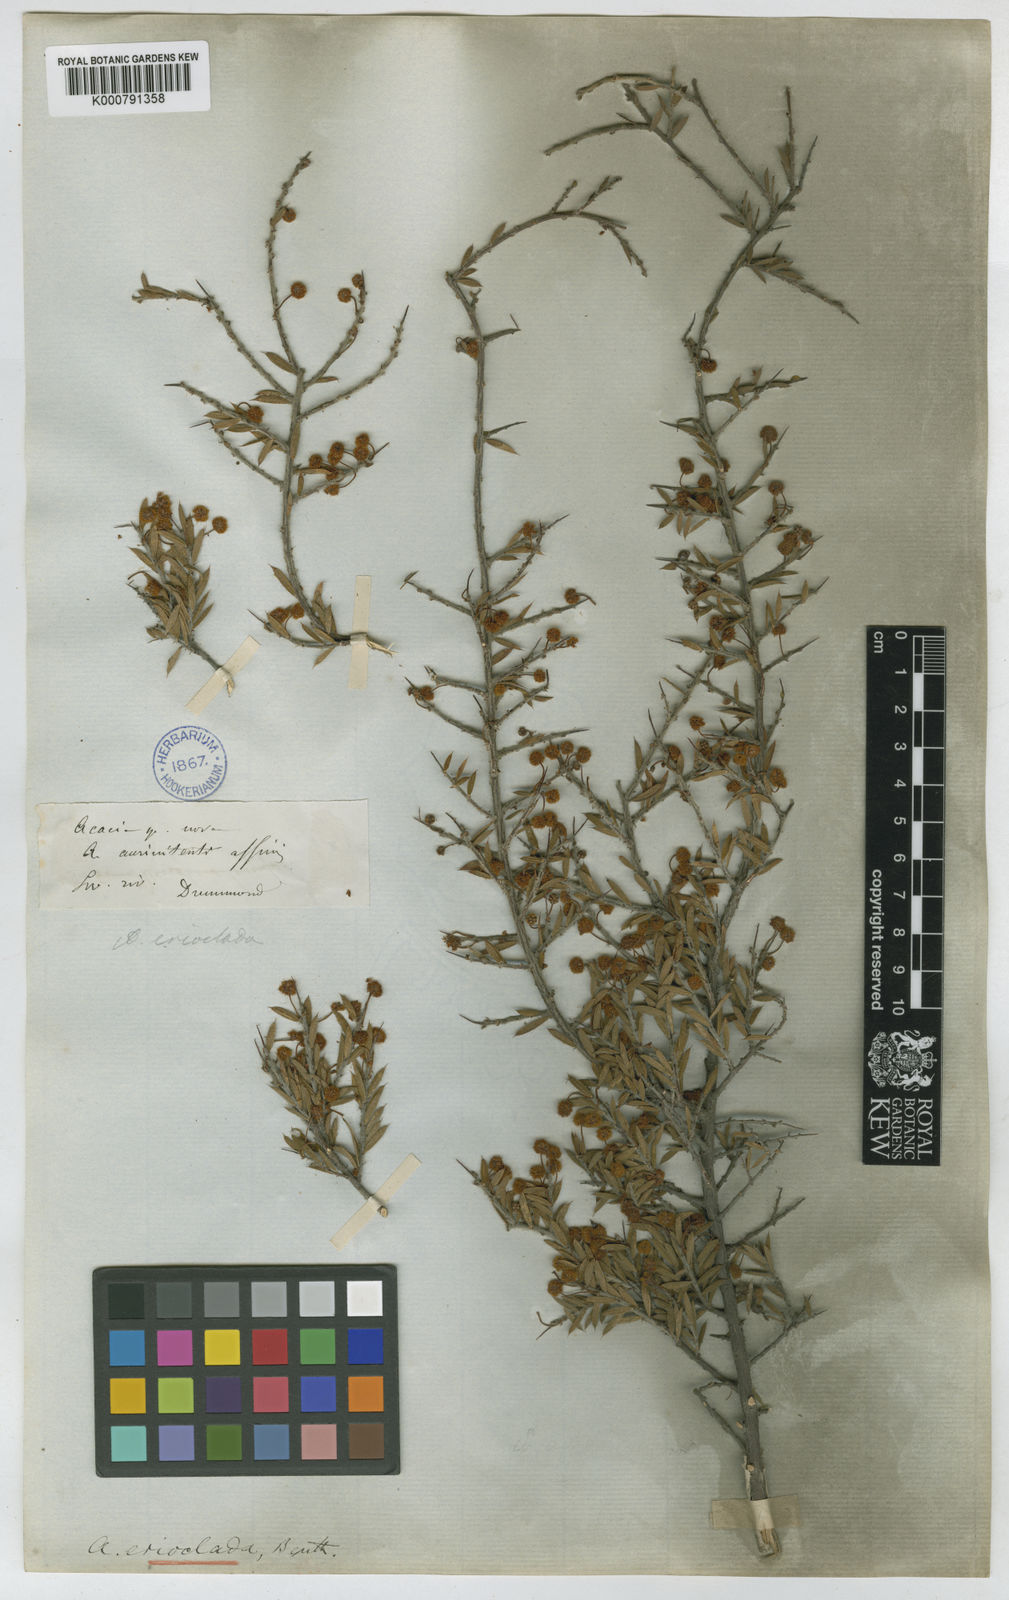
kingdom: Plantae
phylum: Tracheophyta
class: Magnoliopsida
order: Fabales
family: Fabaceae
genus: Acacia
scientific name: Acacia erioclada
